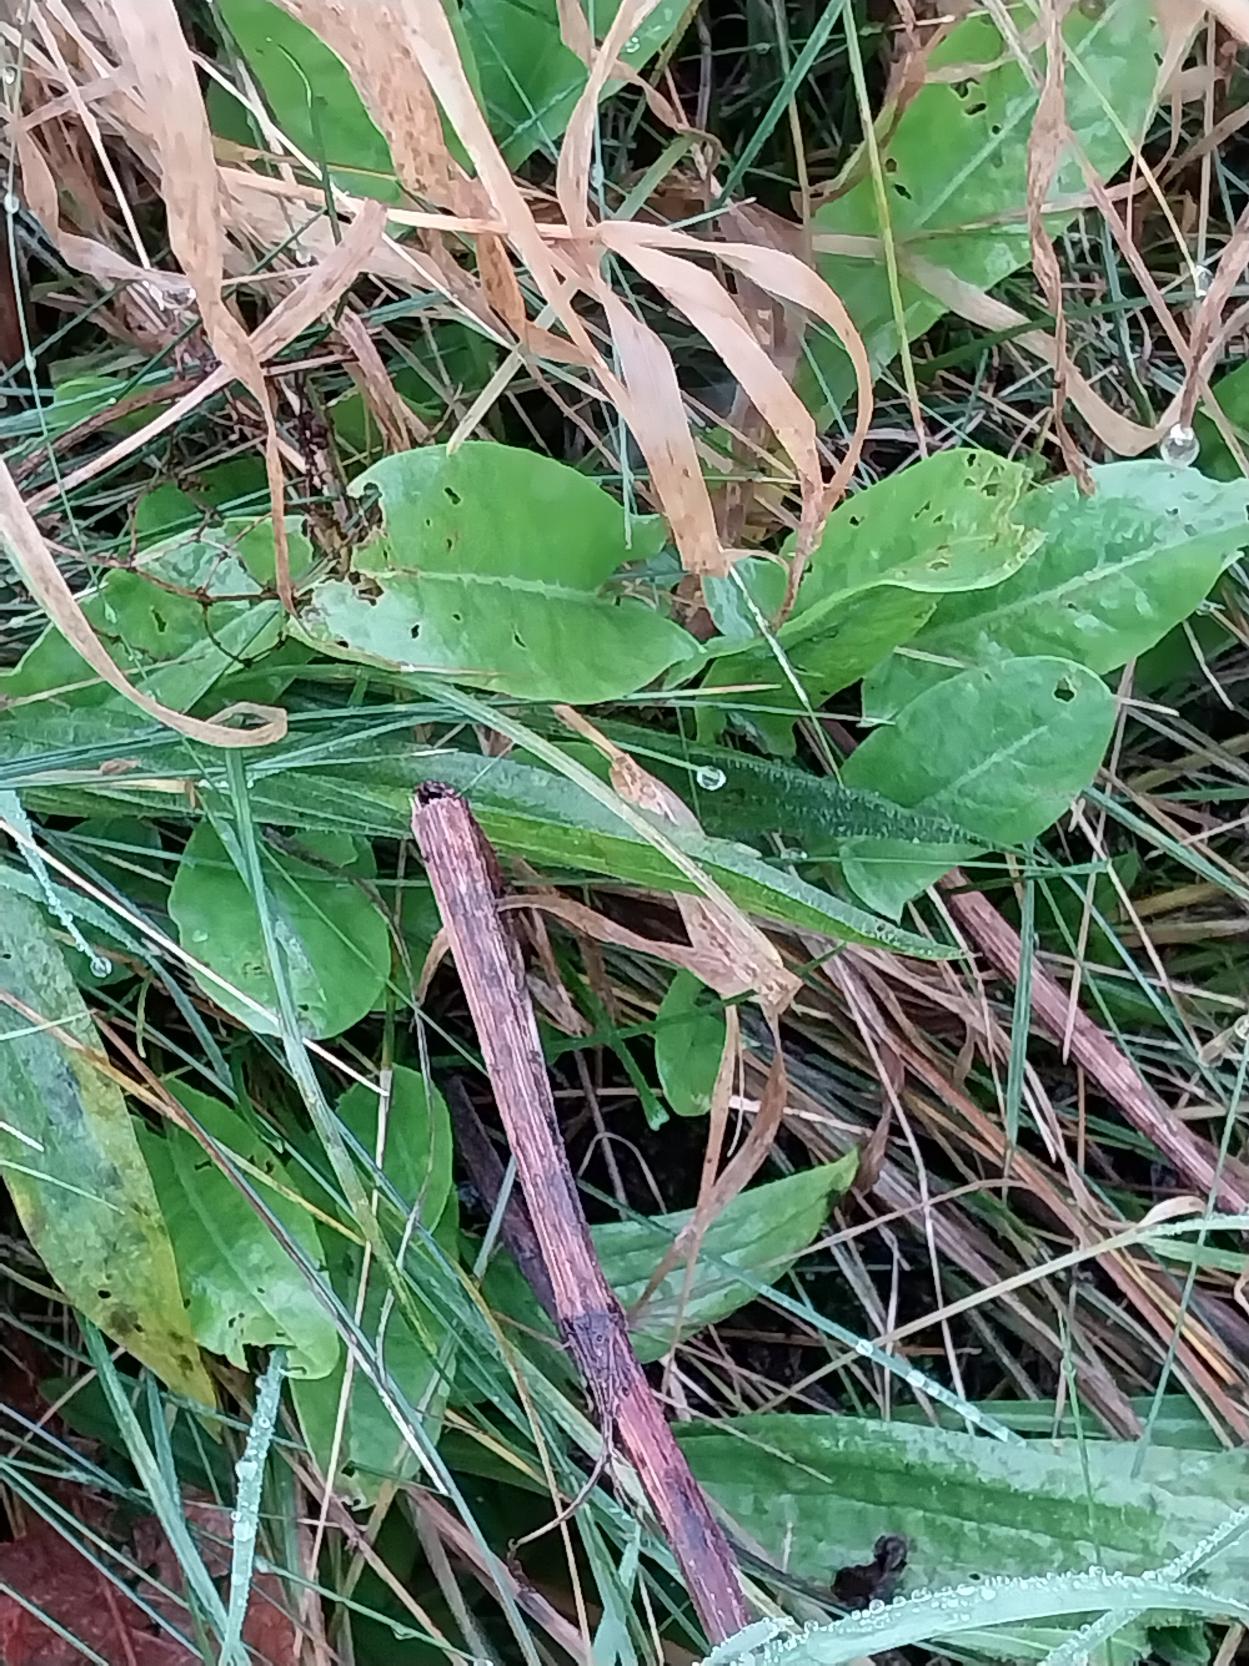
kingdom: Plantae
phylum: Tracheophyta
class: Magnoliopsida
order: Caryophyllales
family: Polygonaceae
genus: Rumex
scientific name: Rumex thyrsiflorus
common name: Dusk-syre
